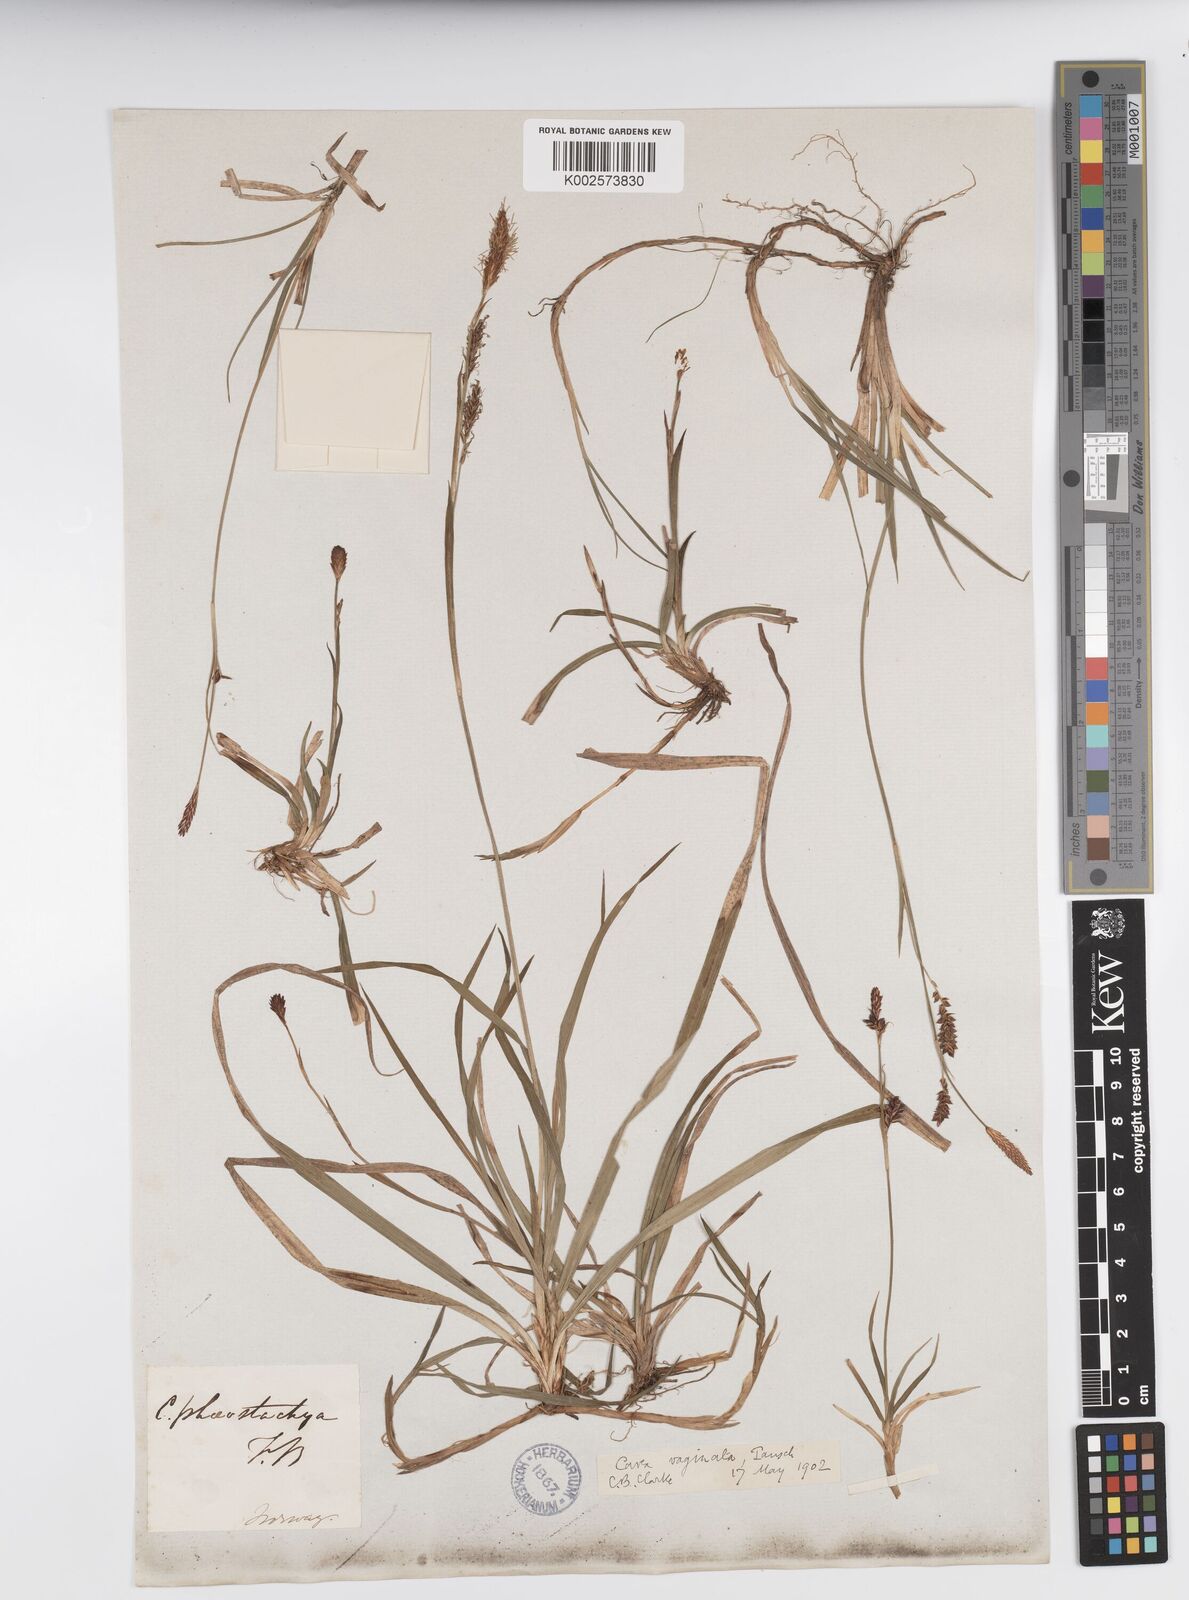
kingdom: Plantae
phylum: Tracheophyta
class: Liliopsida
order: Poales
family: Cyperaceae
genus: Carex
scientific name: Carex vaginata
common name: Sheathed sedge
